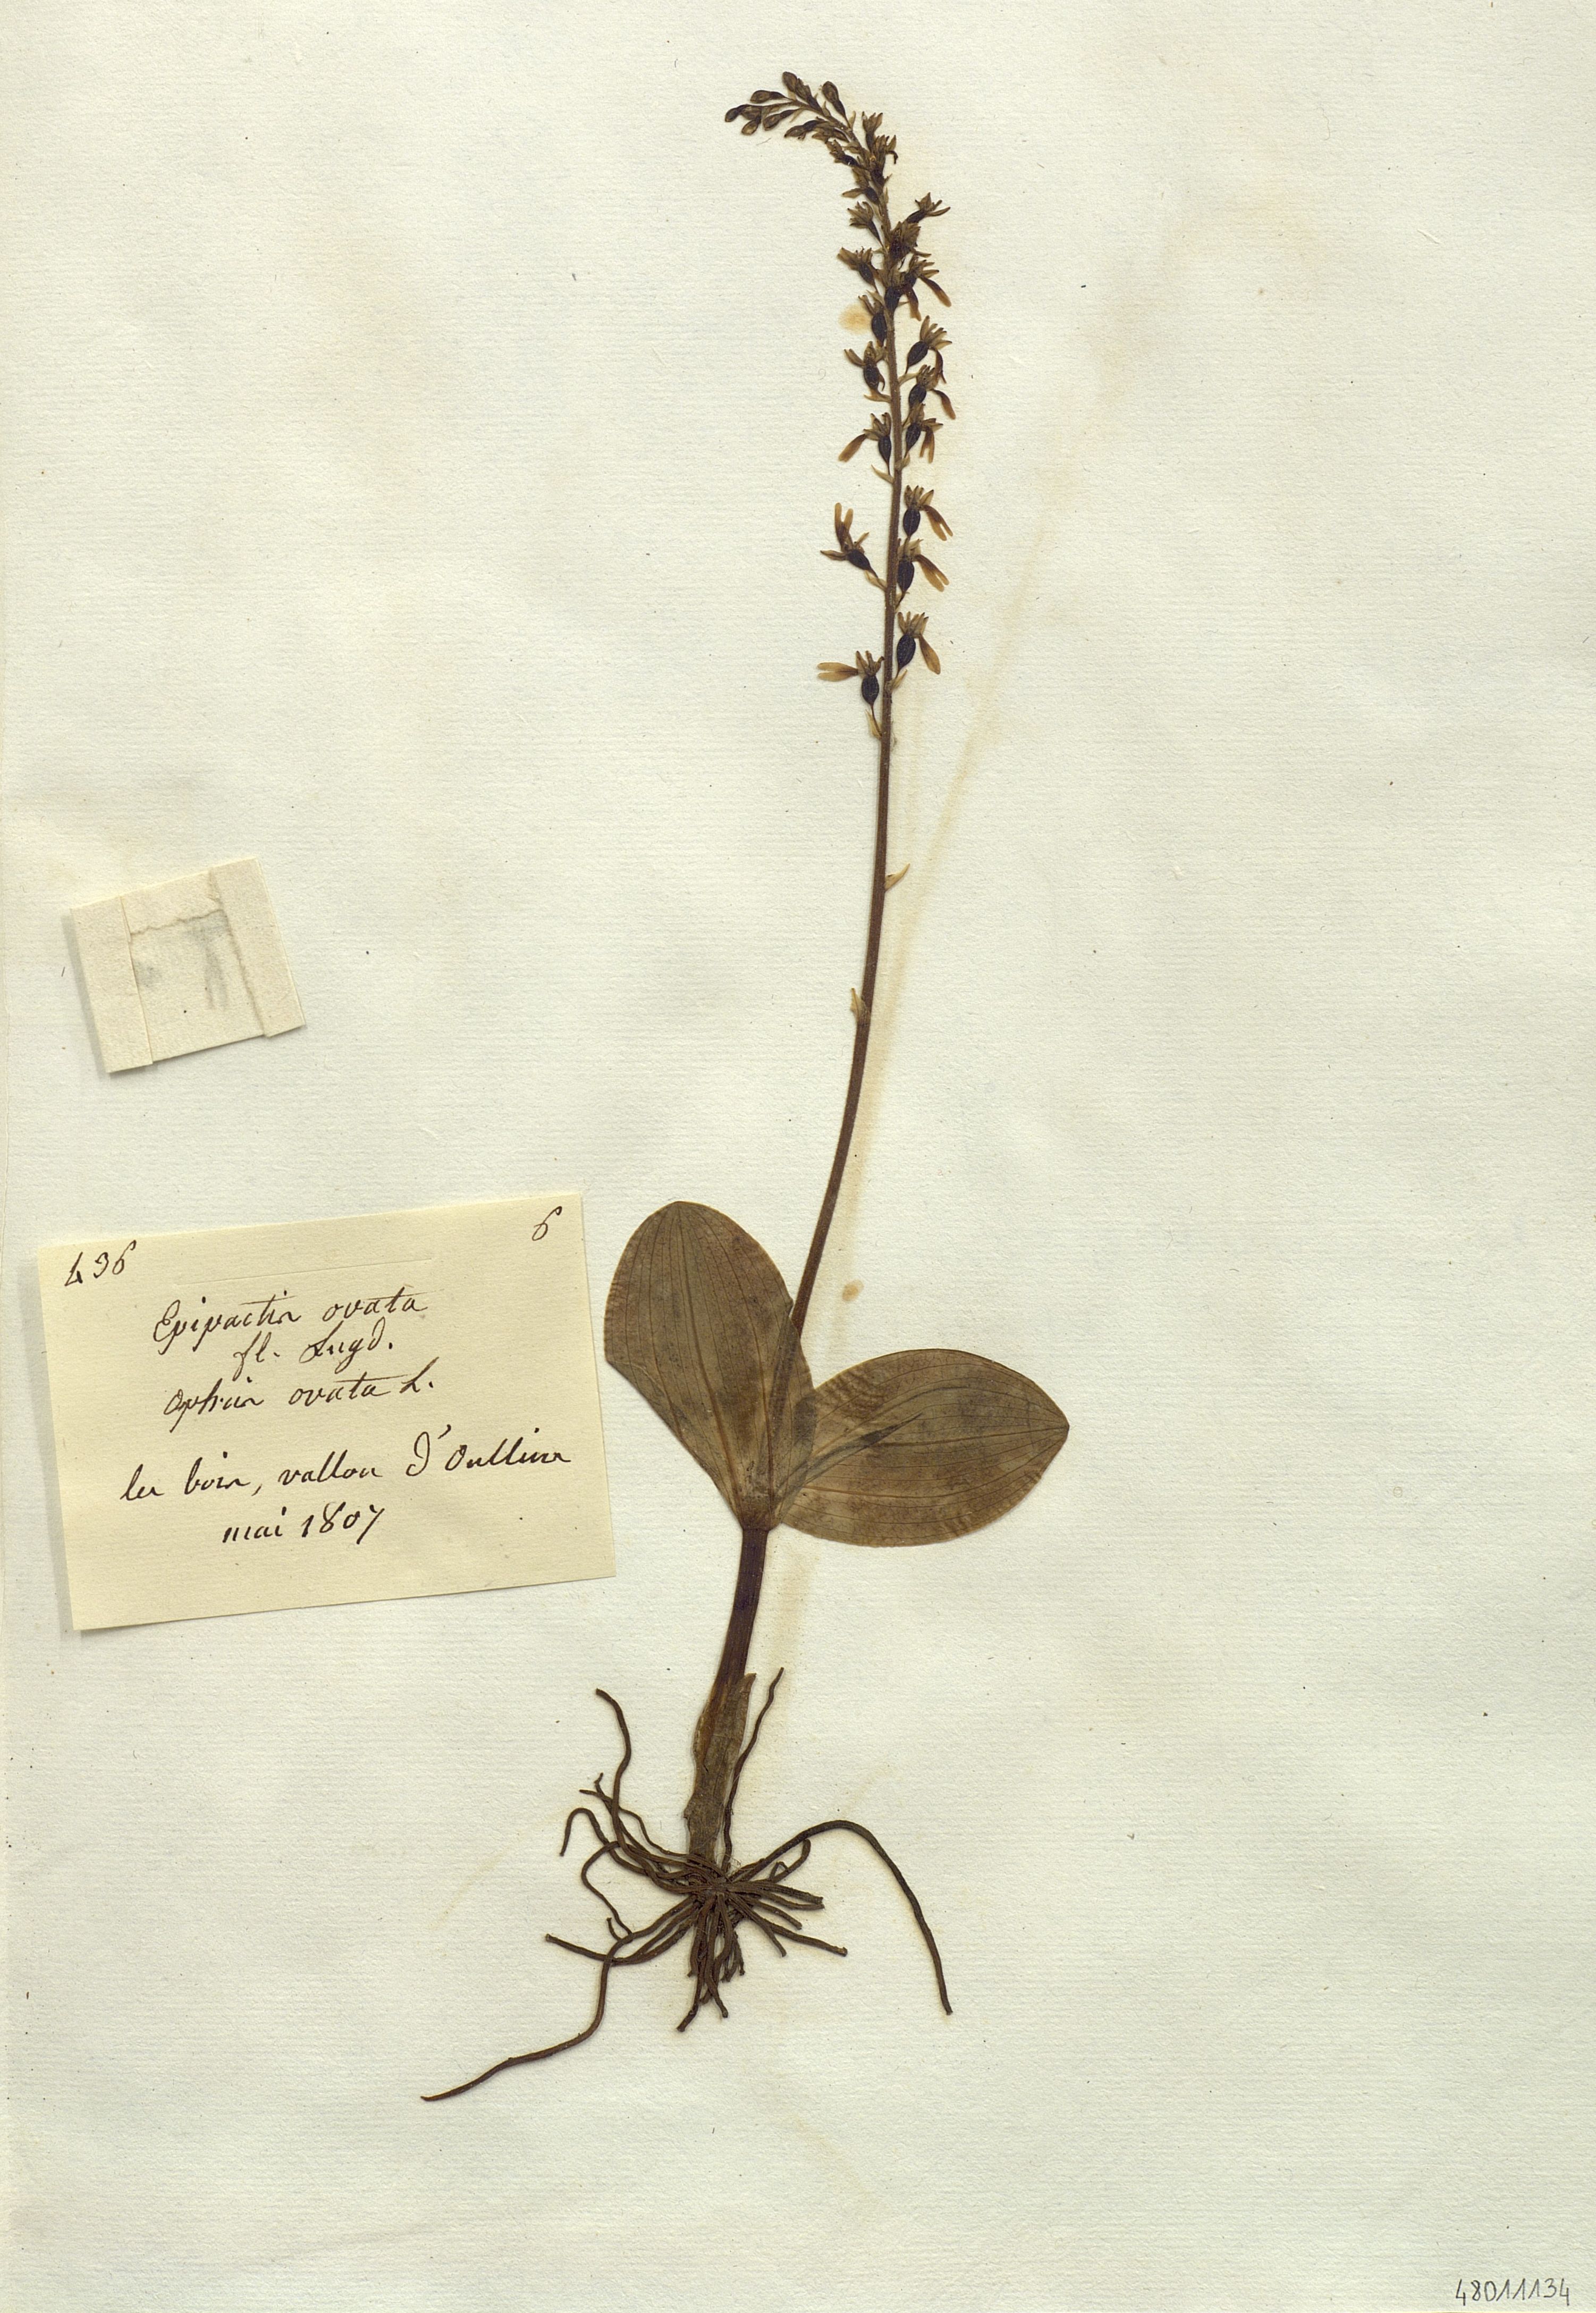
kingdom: Plantae
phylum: Tracheophyta
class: Liliopsida
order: Asparagales
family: Orchidaceae
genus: Neottia
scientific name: Neottia ovata
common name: Common twayblade
